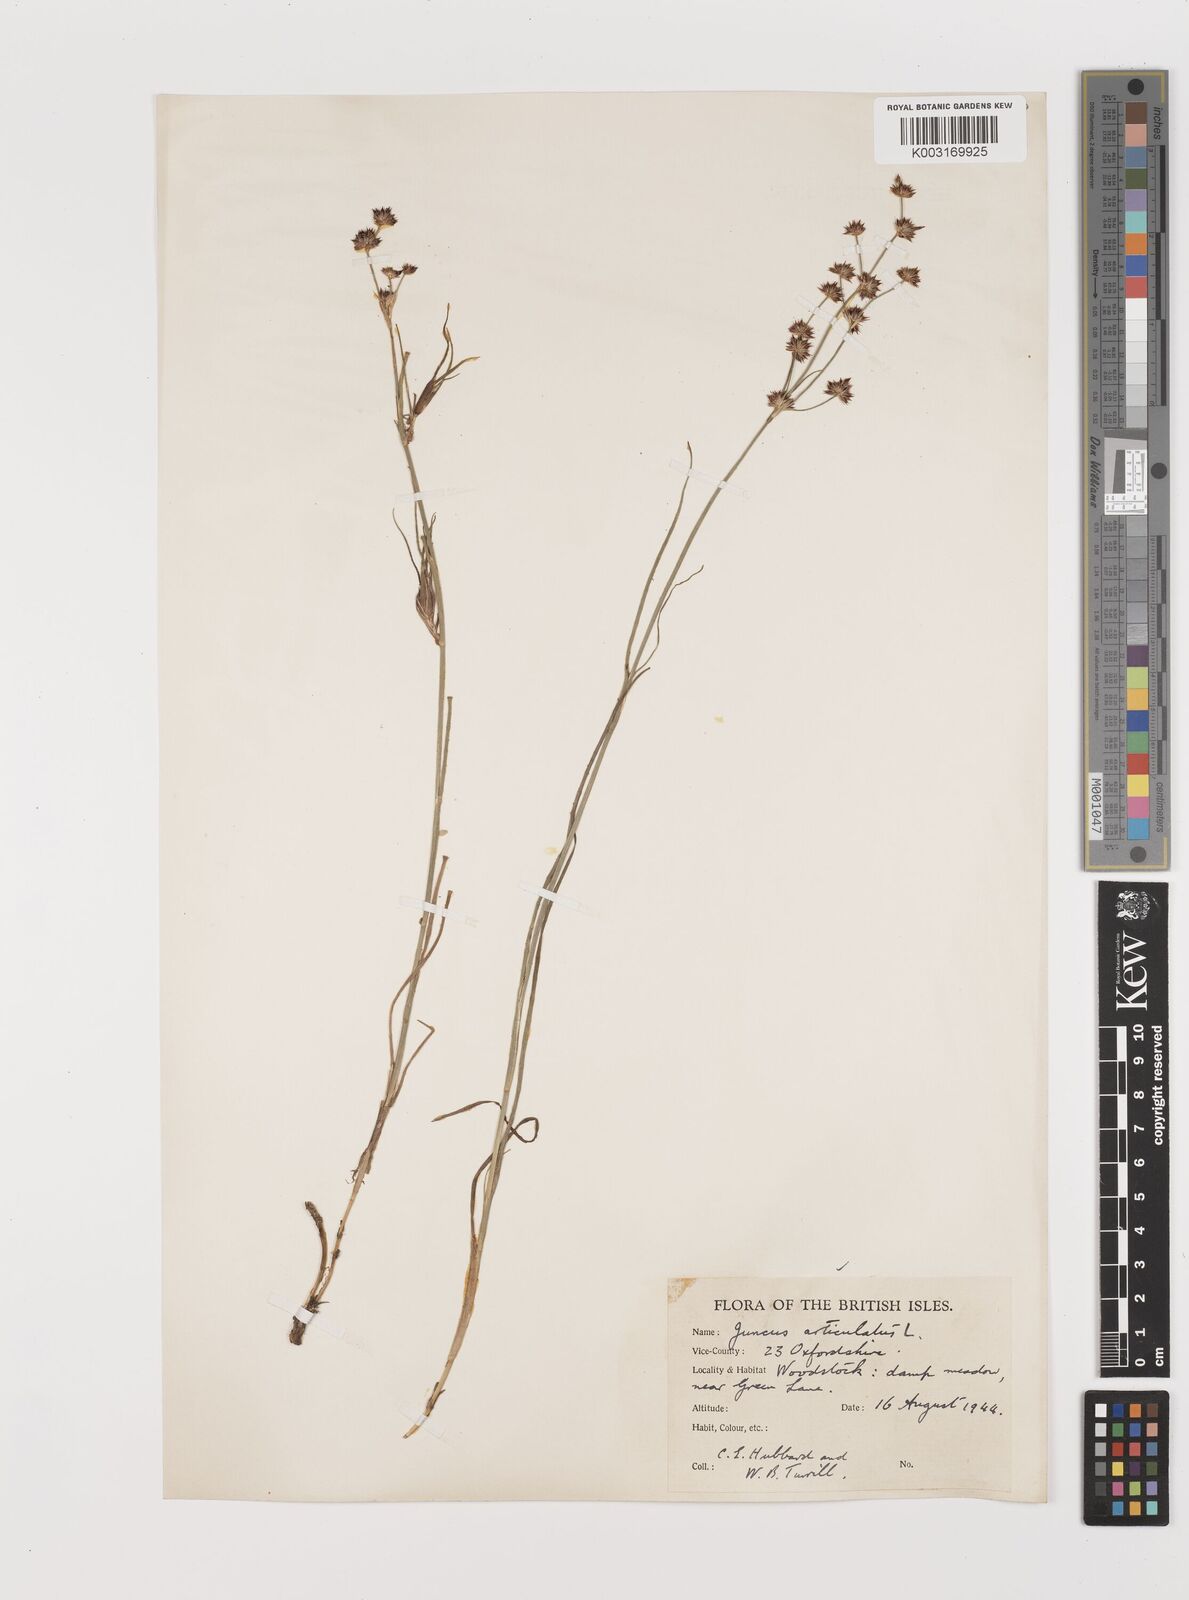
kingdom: Plantae
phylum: Tracheophyta
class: Liliopsida
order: Poales
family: Juncaceae
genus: Juncus
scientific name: Juncus articulatus
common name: Jointed rush
